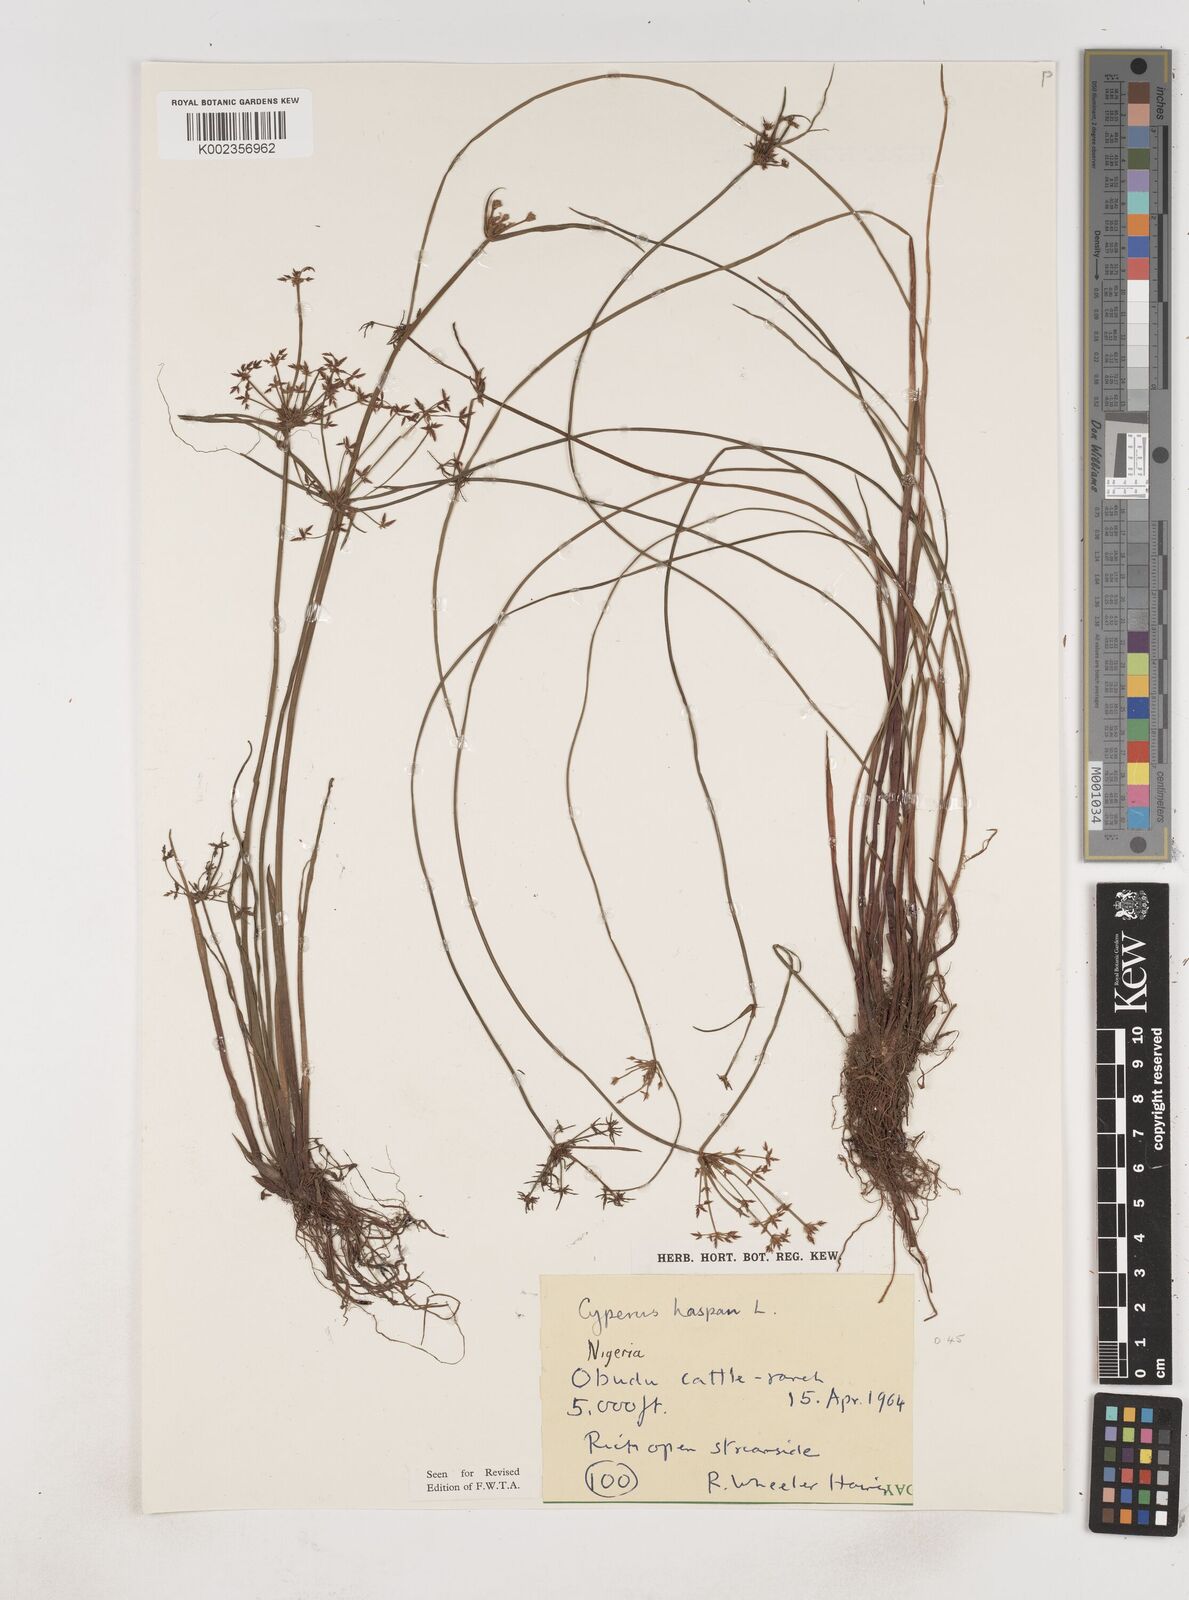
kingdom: Plantae
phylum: Tracheophyta
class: Liliopsida
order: Poales
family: Cyperaceae
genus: Cyperus
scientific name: Cyperus haspan
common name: Haspan flatsedge
